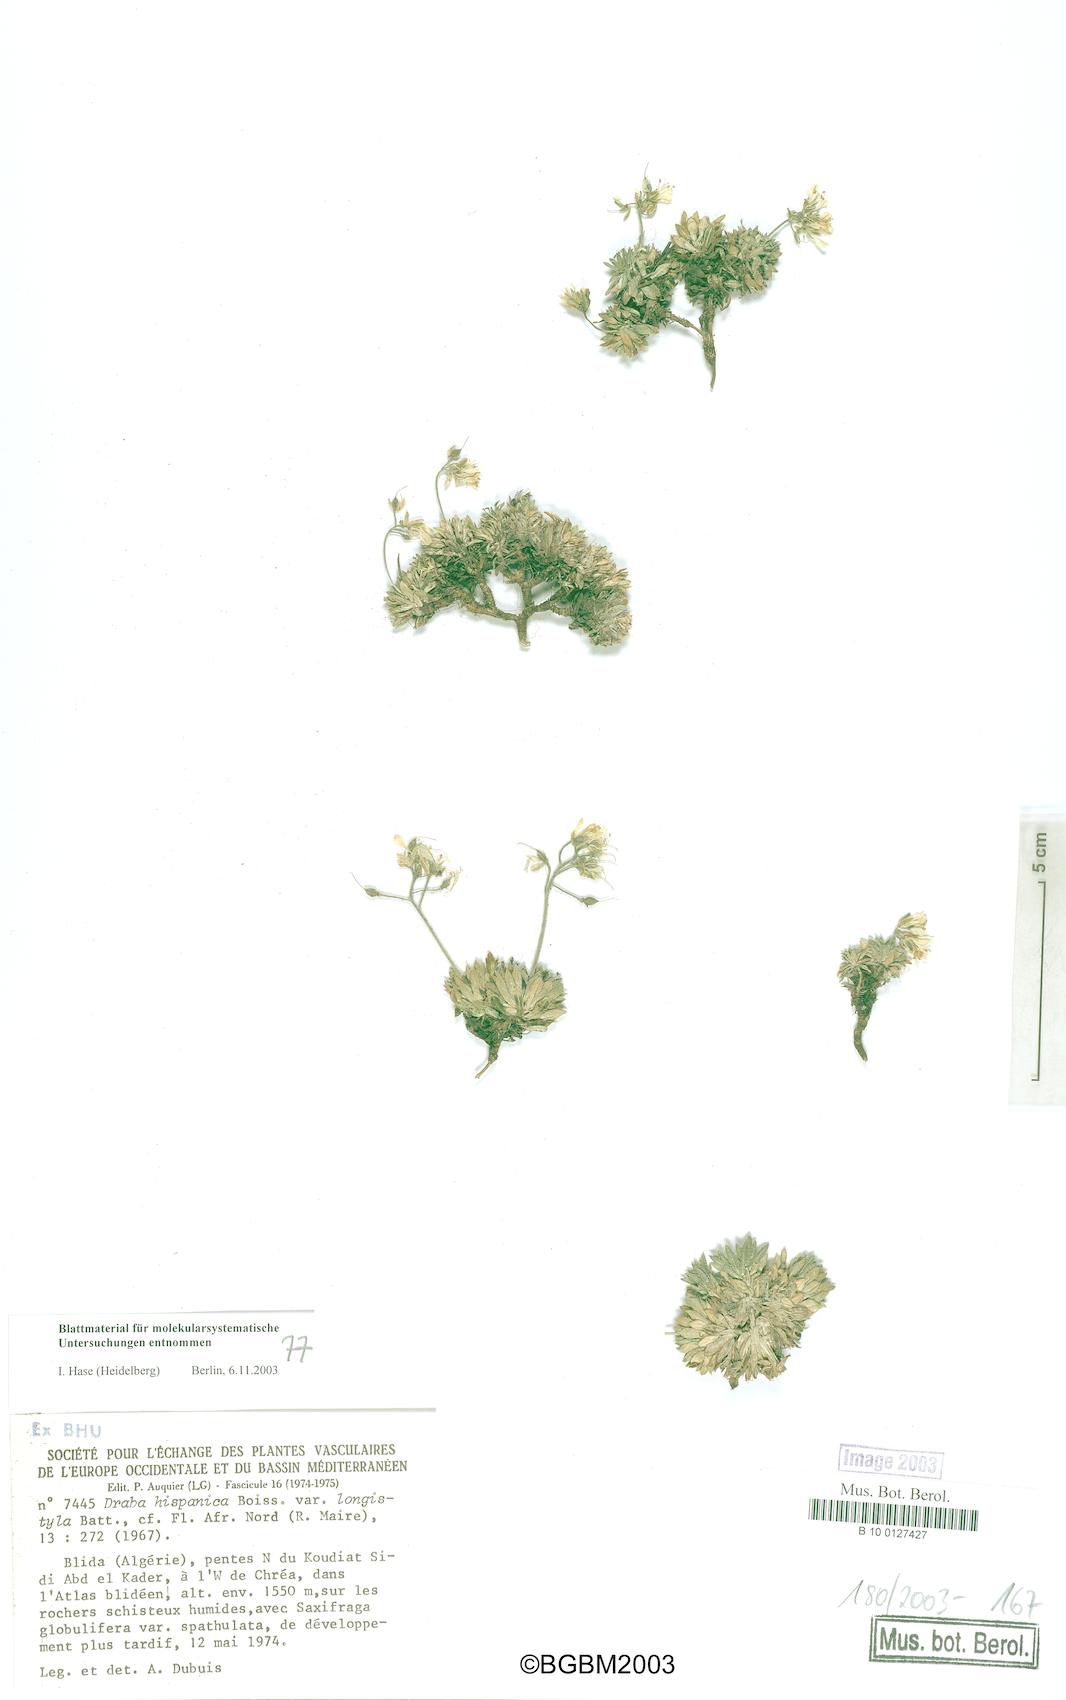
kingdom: Plantae
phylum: Tracheophyta
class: Magnoliopsida
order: Brassicales
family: Brassicaceae
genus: Draba
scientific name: Draba hispanica
